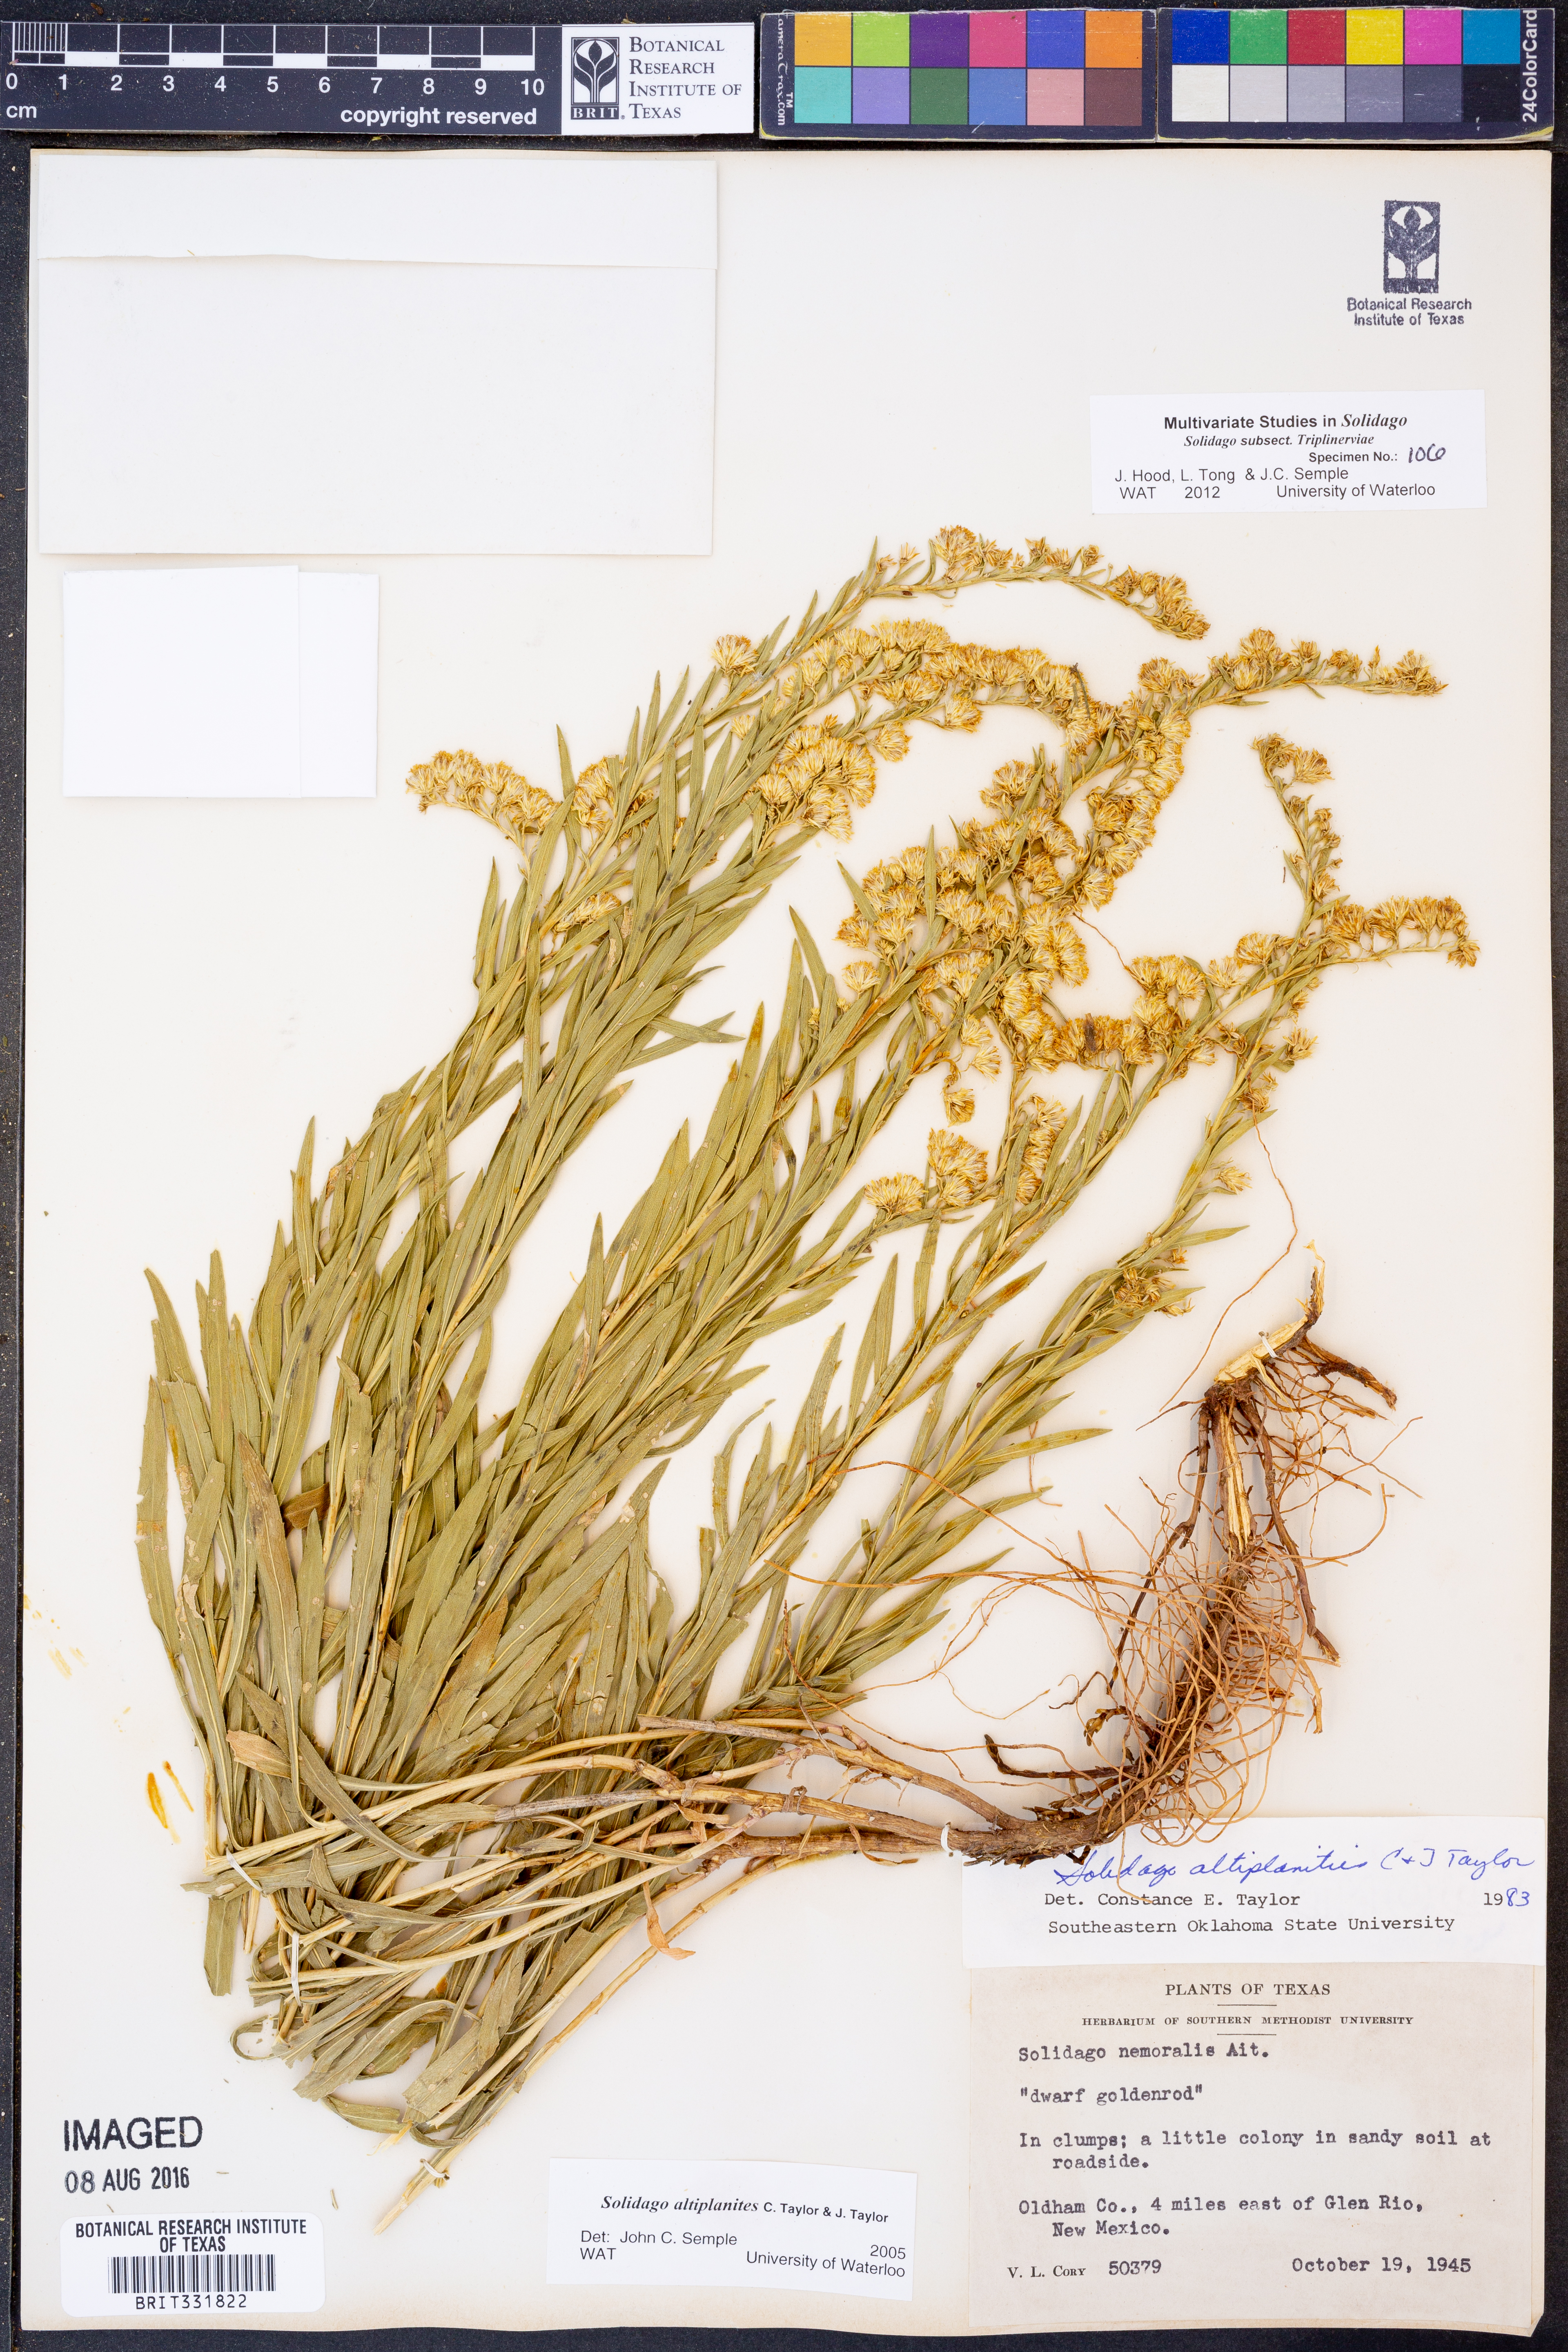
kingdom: Plantae
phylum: Tracheophyta
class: Magnoliopsida
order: Asterales
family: Asteraceae
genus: Solidago
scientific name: Solidago altiplanities
